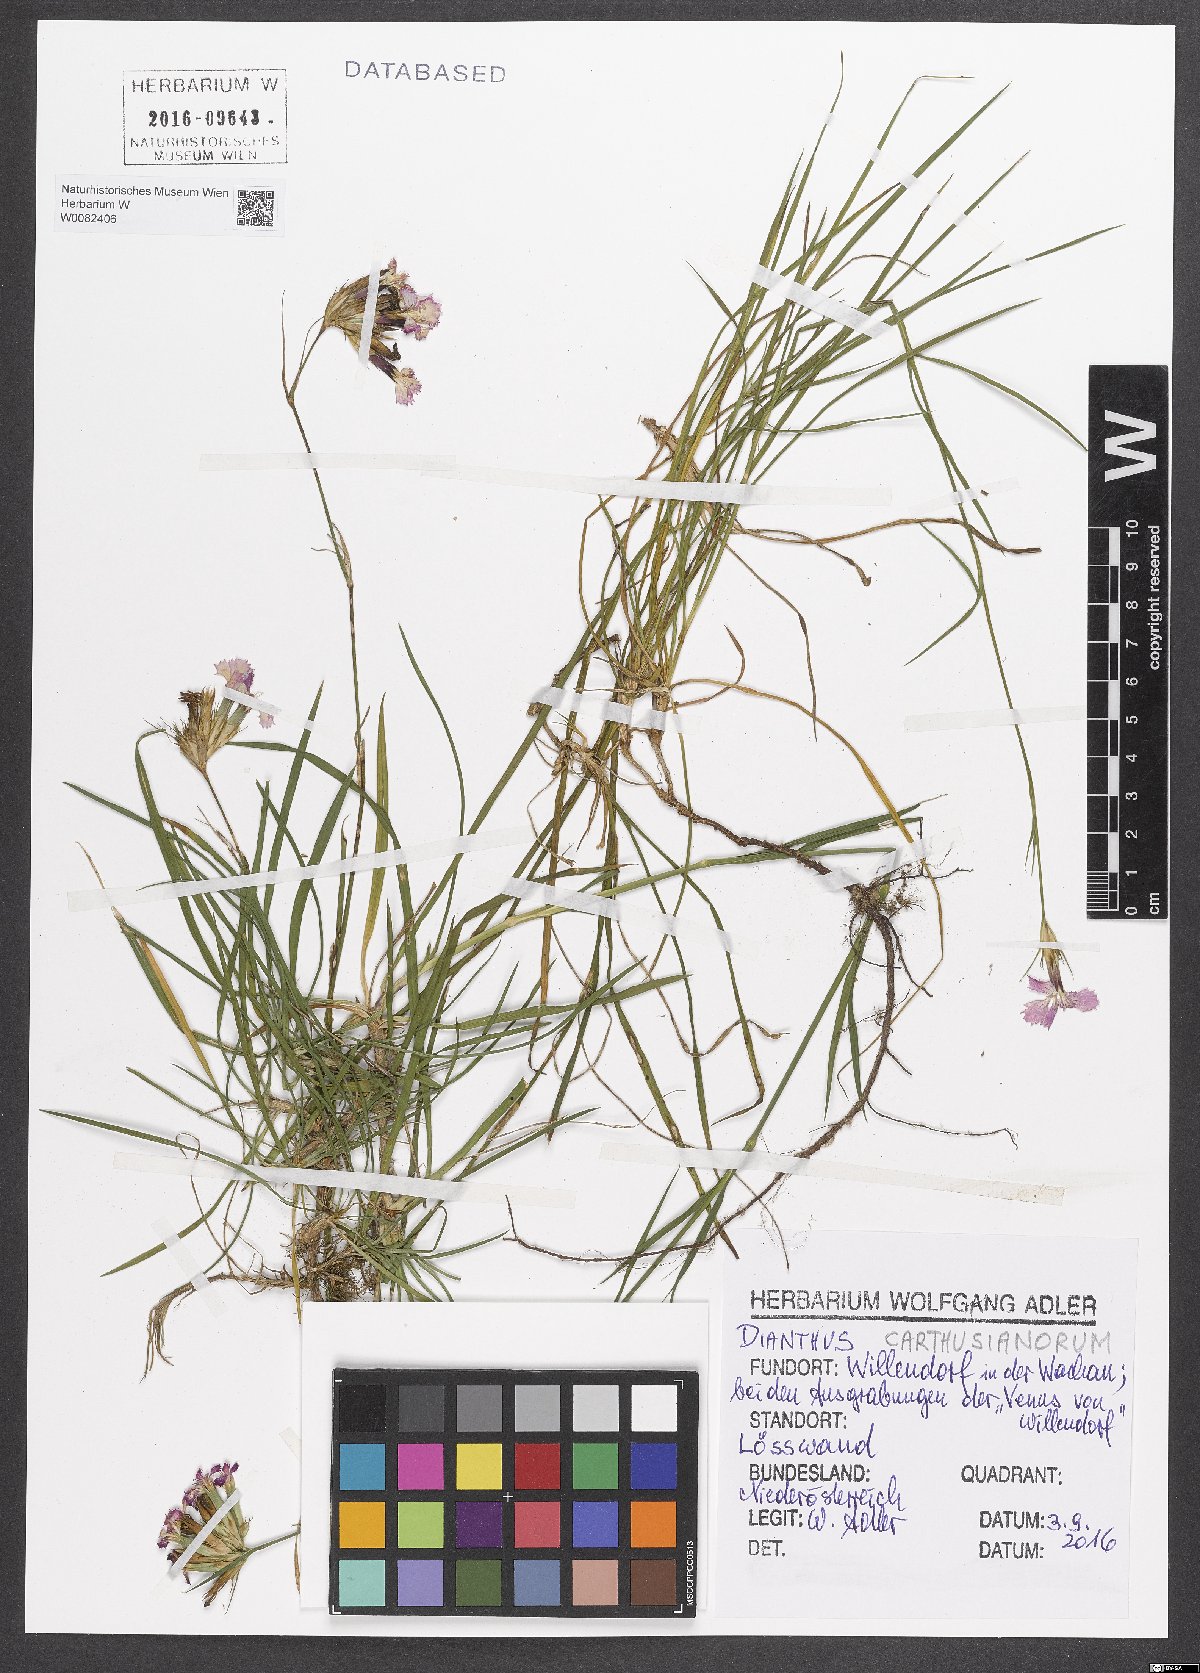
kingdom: Plantae
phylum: Tracheophyta
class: Magnoliopsida
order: Caryophyllales
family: Caryophyllaceae
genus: Dianthus
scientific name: Dianthus carthusianorum
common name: Carthusian pink
